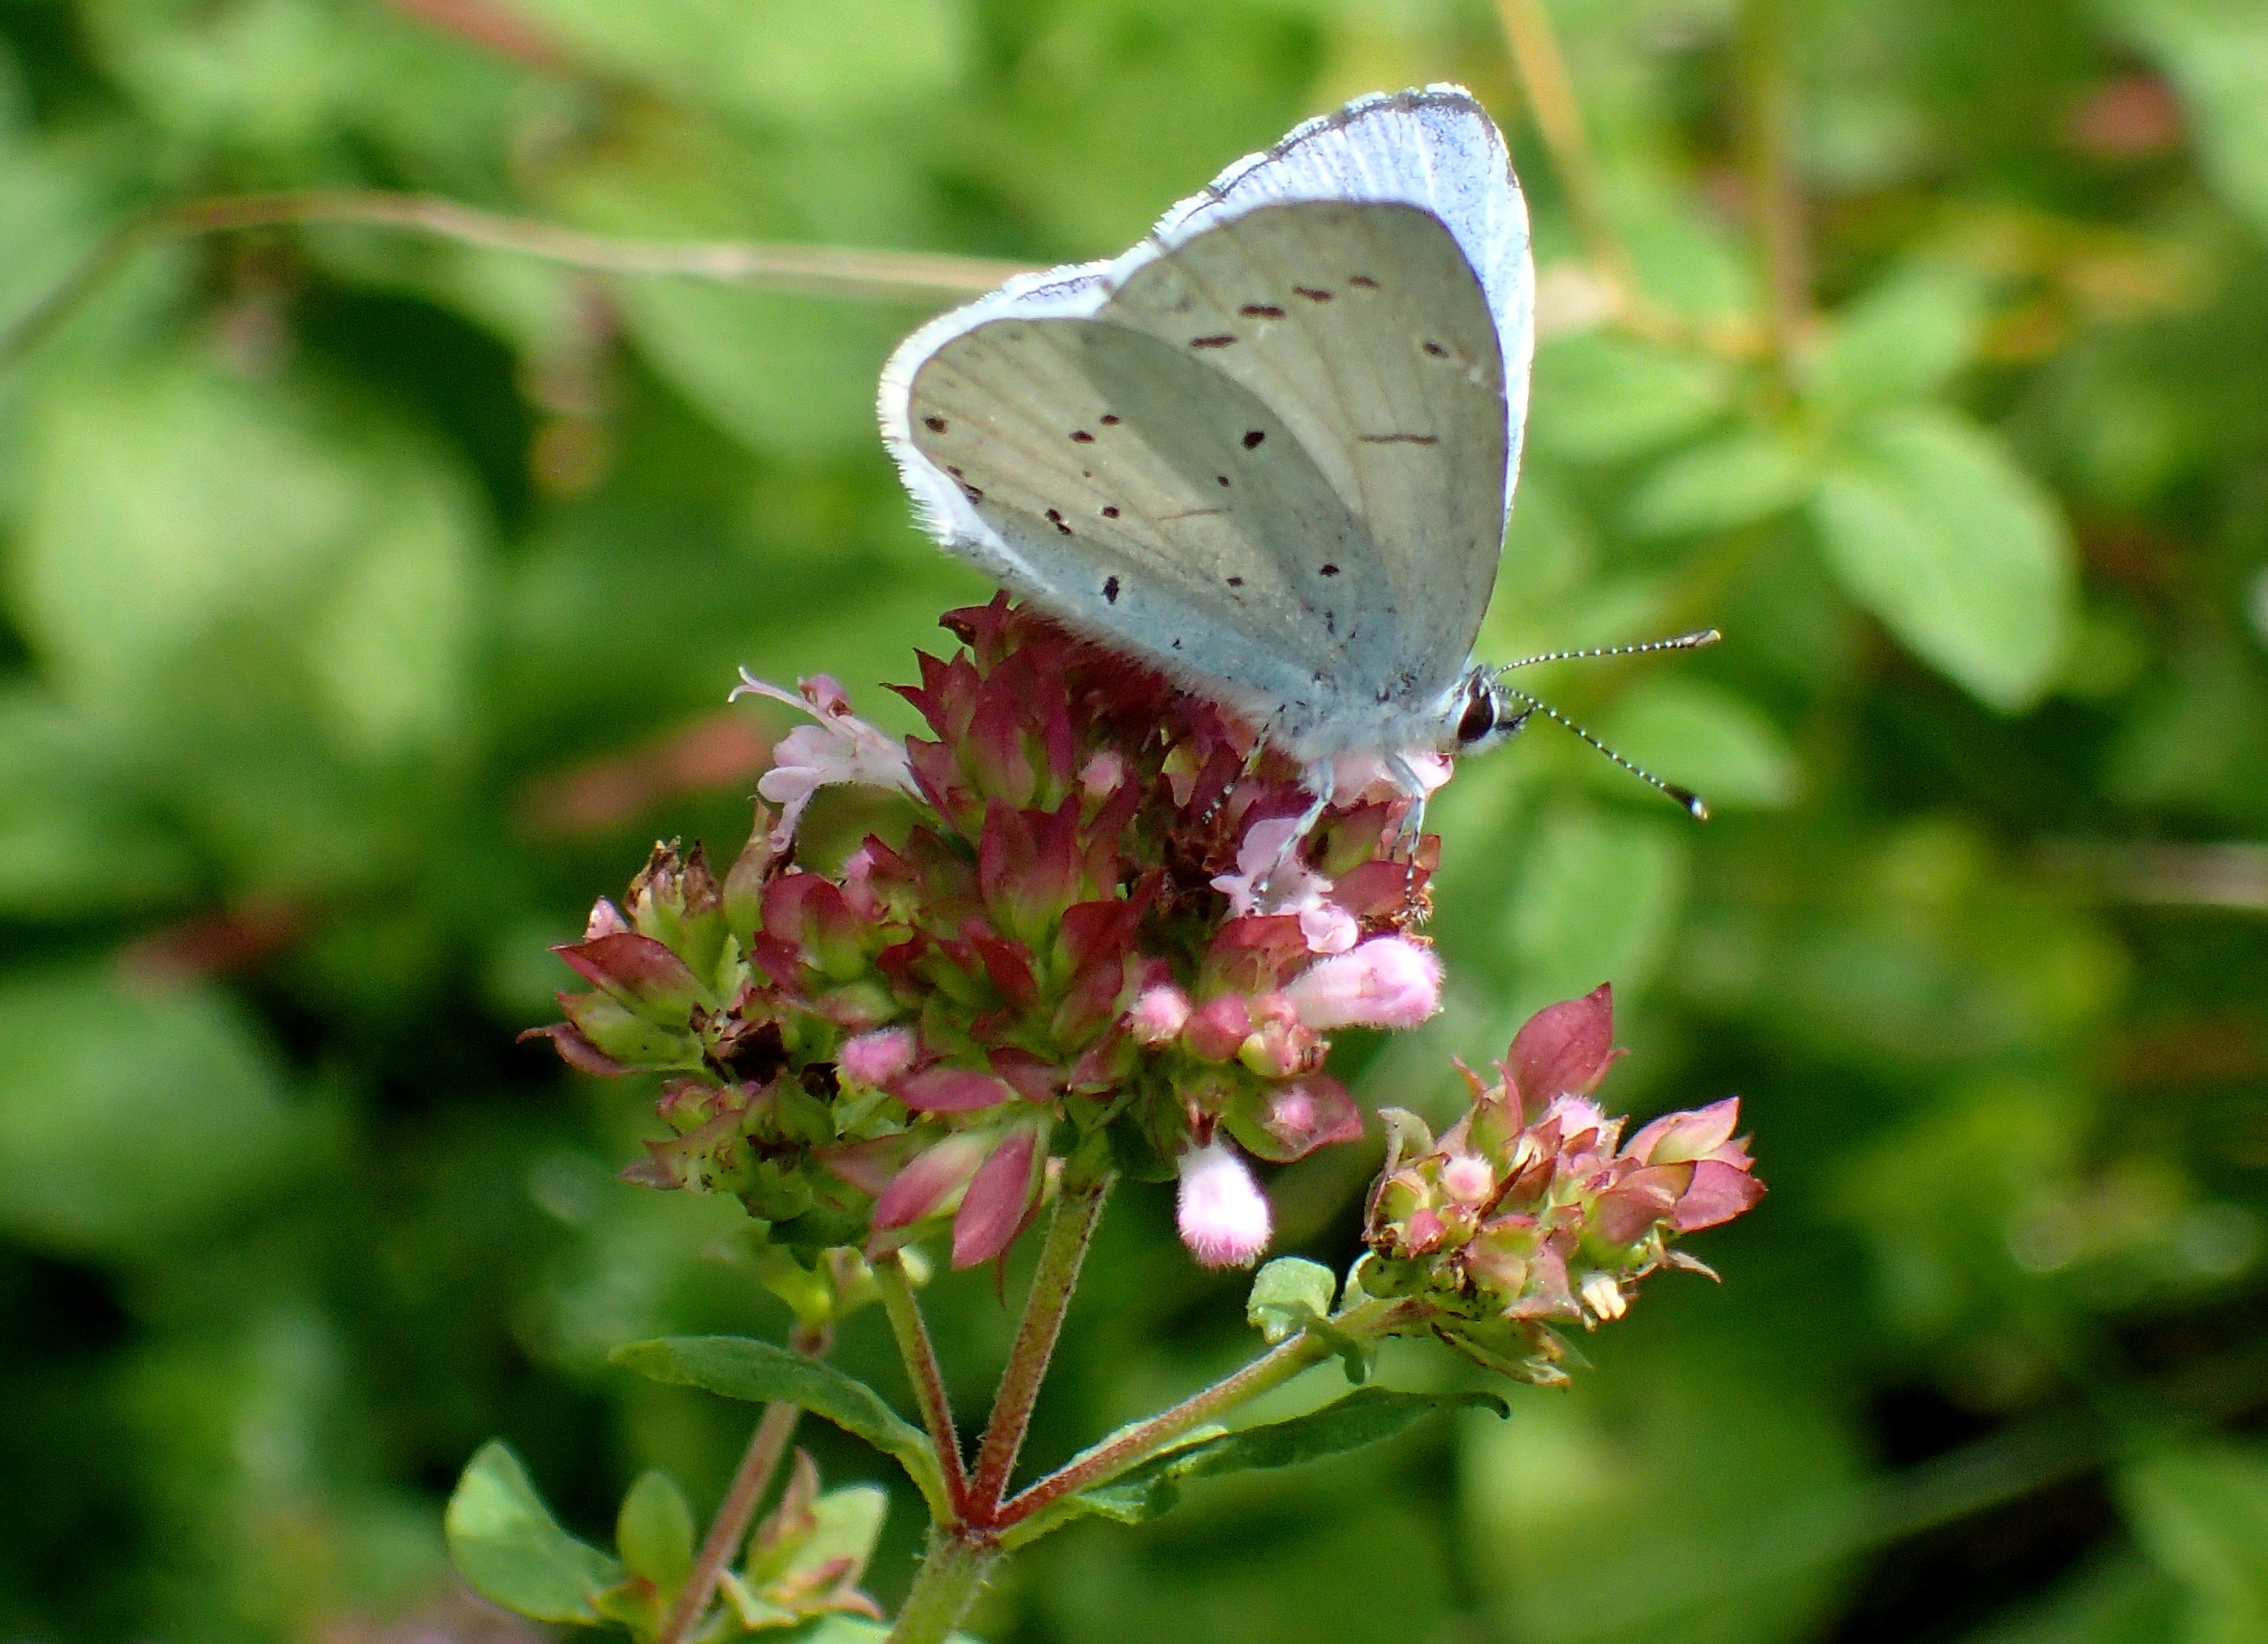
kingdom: Animalia
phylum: Arthropoda
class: Insecta
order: Lepidoptera
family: Lycaenidae
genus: Celastrina
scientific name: Celastrina argiolus
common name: Skovblåfugl
